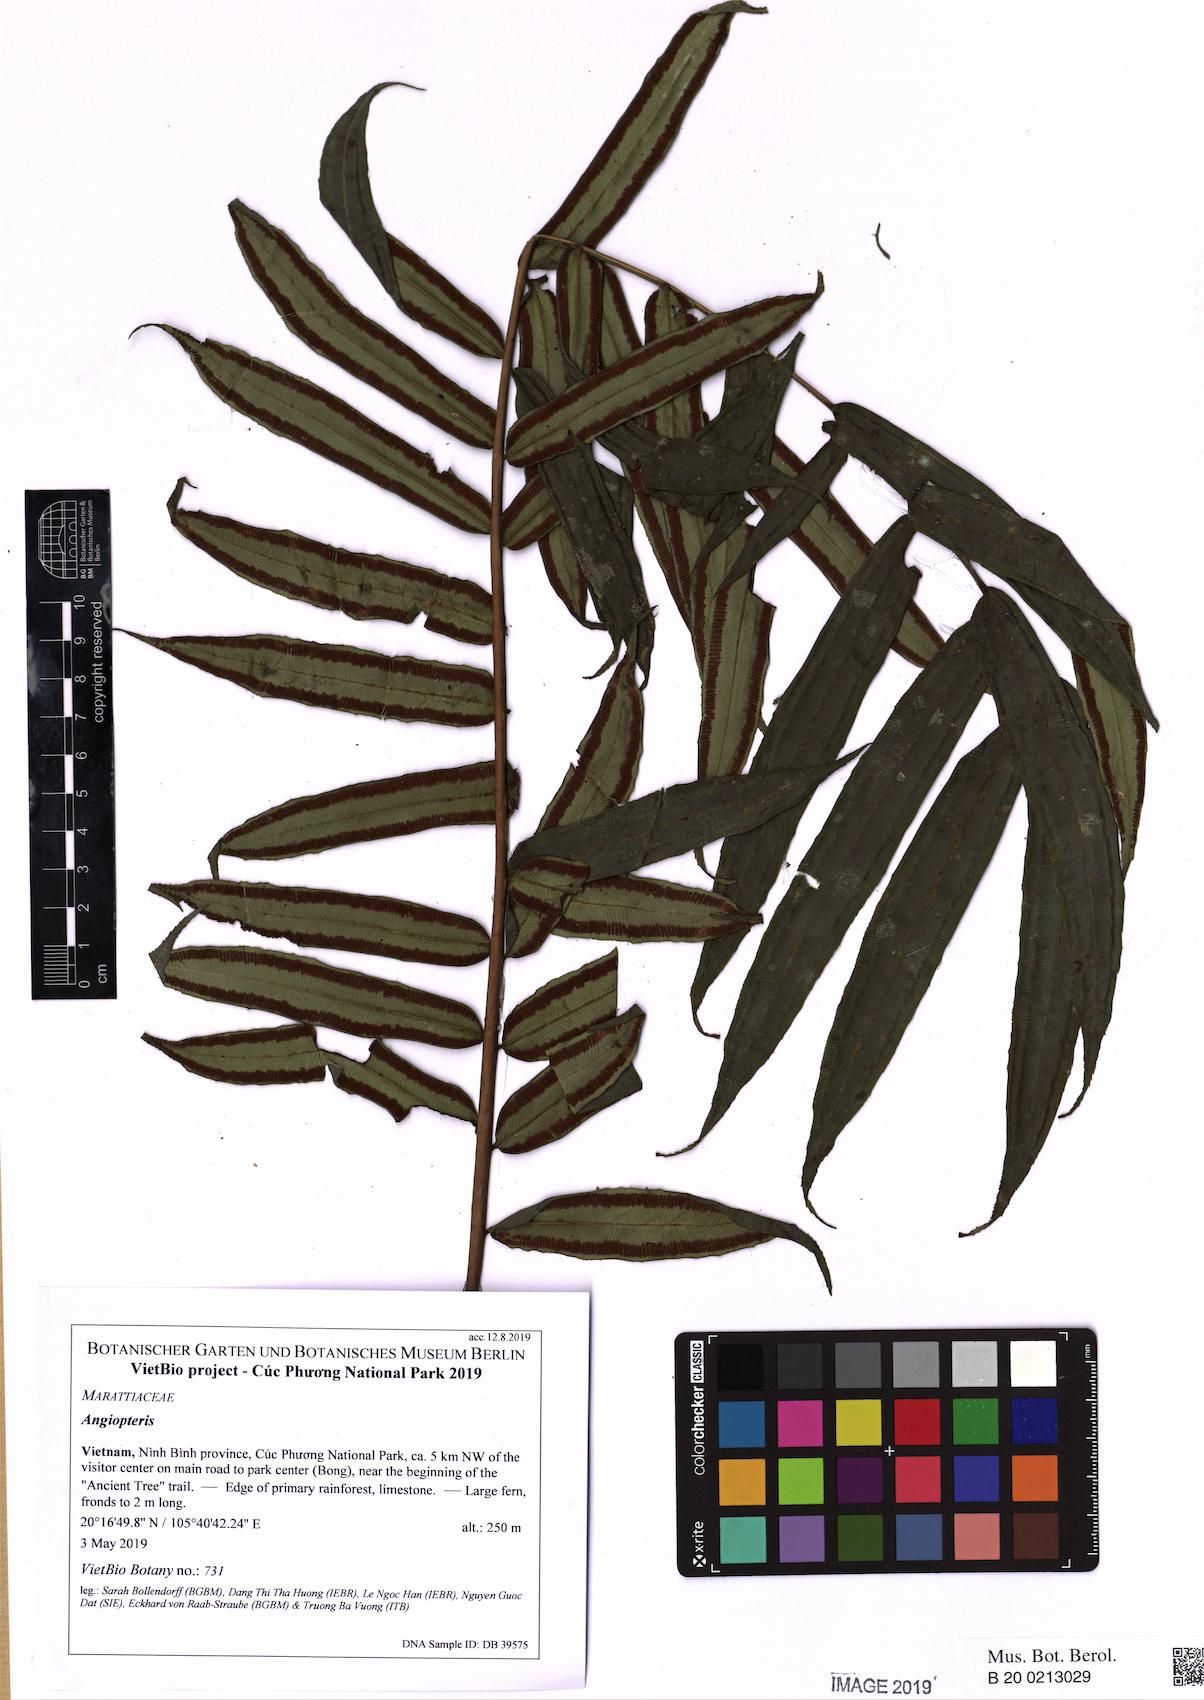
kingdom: Plantae
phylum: Tracheophyta
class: Polypodiopsida
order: Marattiales
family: Marattiaceae
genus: Angiopteris
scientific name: Angiopteris
